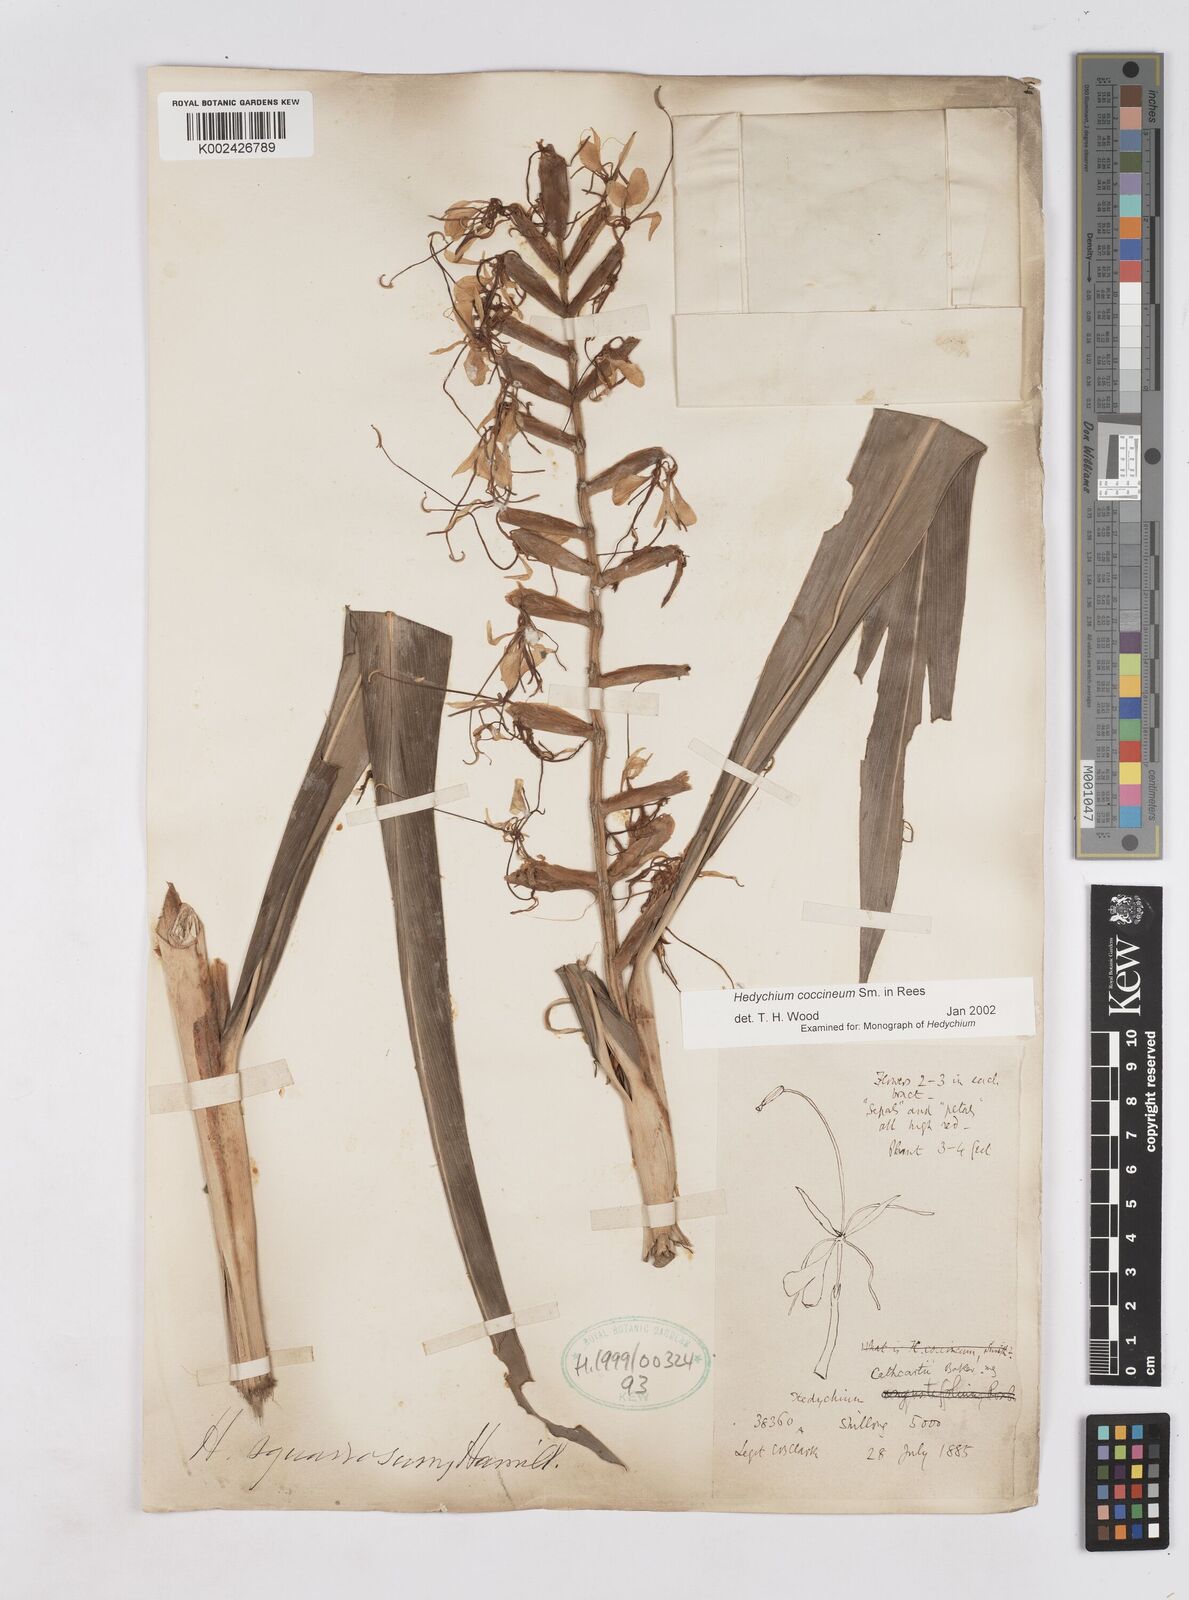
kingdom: Plantae
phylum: Tracheophyta
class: Liliopsida
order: Zingiberales
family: Zingiberaceae
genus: Hedychium
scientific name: Hedychium coccineum
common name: Red ginger-lily
